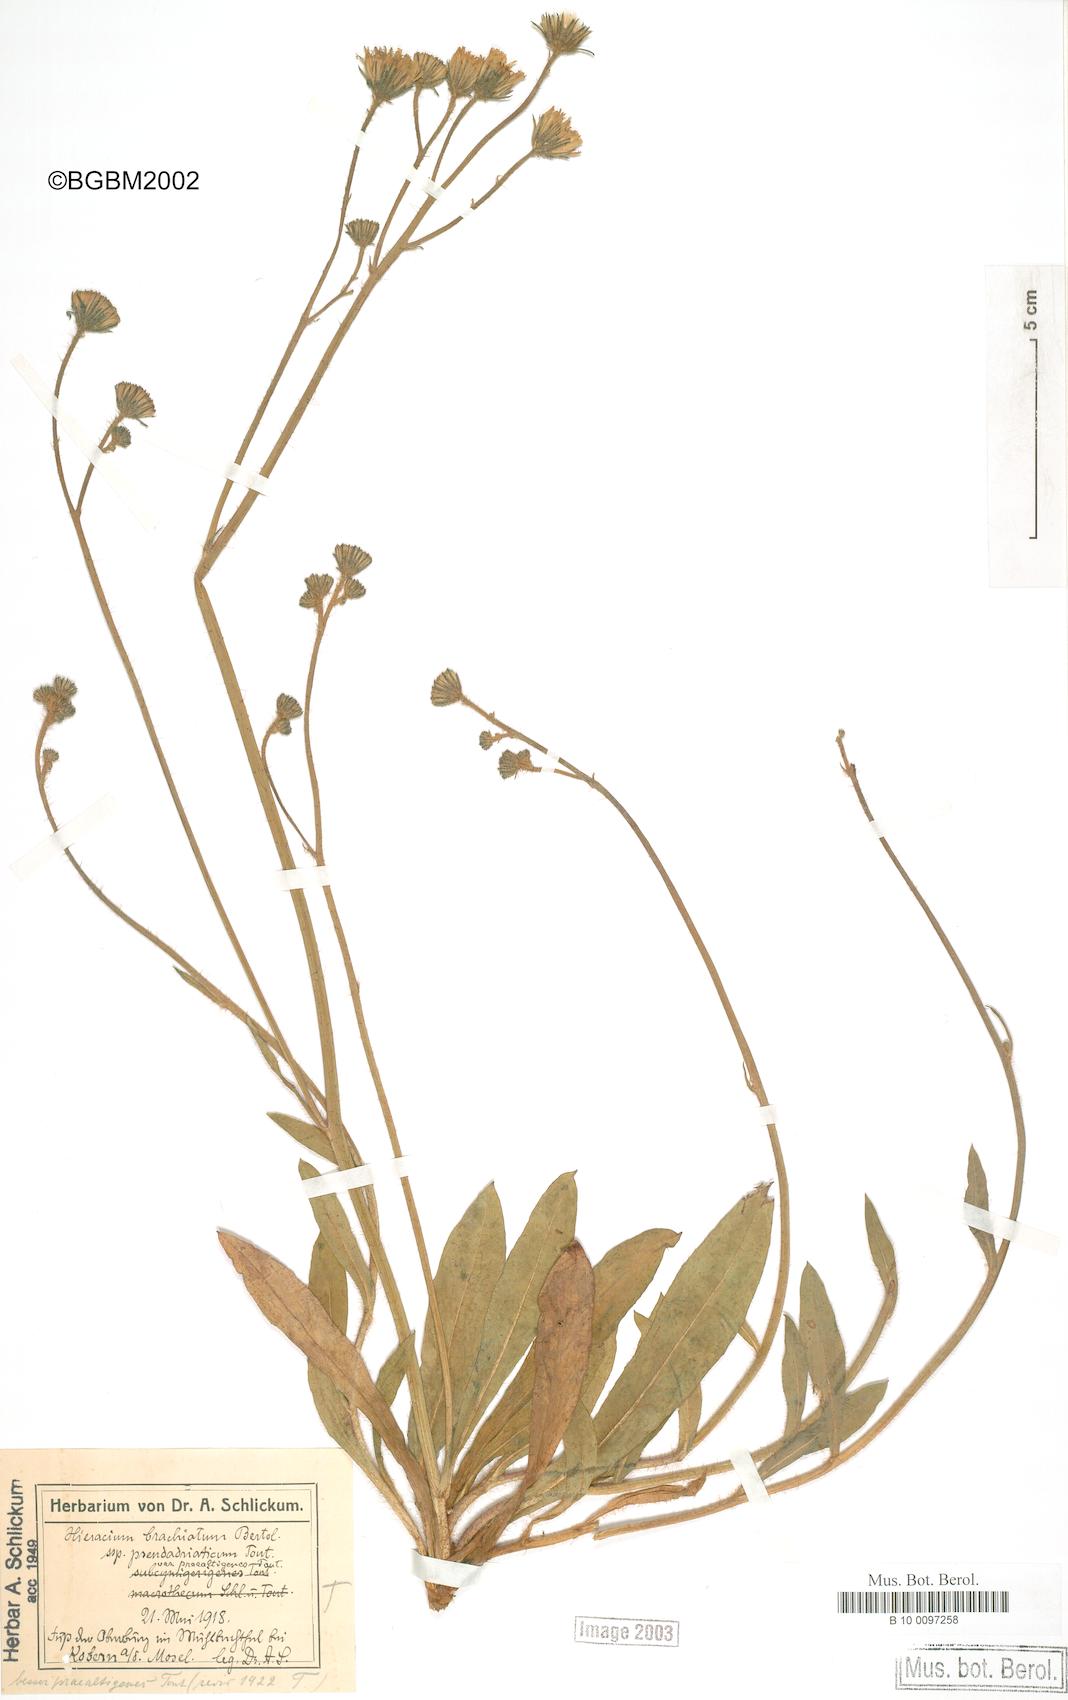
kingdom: Plantae
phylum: Tracheophyta
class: Magnoliopsida
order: Asterales
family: Asteraceae
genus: Pilosella
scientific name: Pilosella acutifolia
